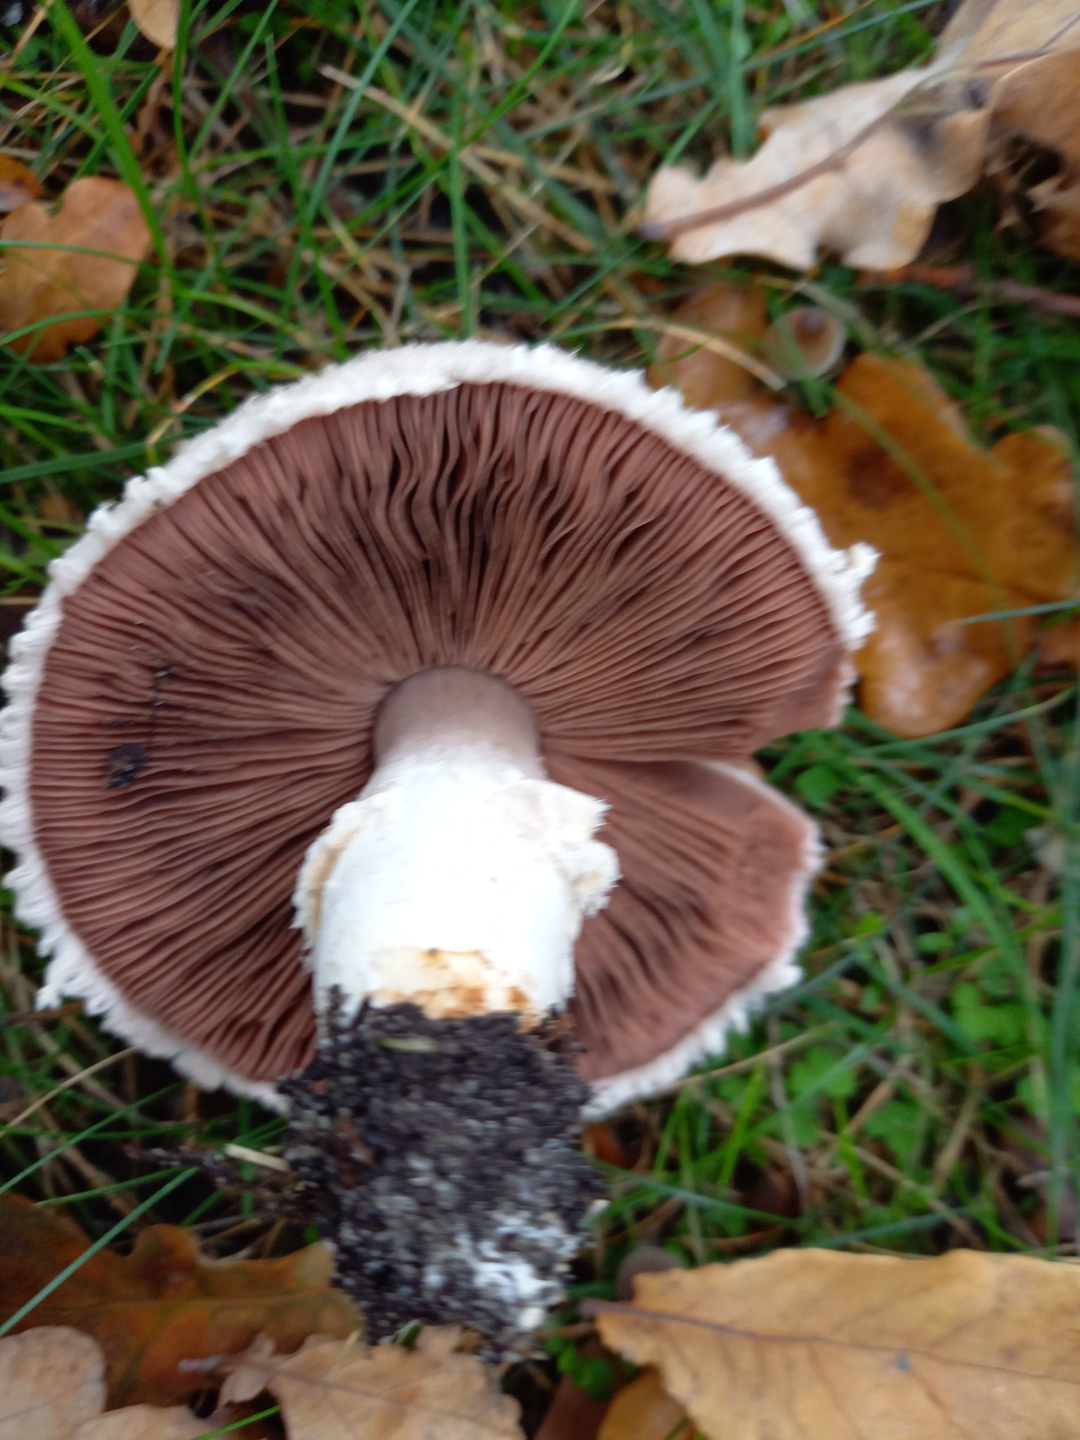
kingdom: Fungi
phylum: Basidiomycota
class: Agaricomycetes
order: Agaricales
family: Agaricaceae
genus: Agaricus
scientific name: Agaricus campestris
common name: mark-champignon
